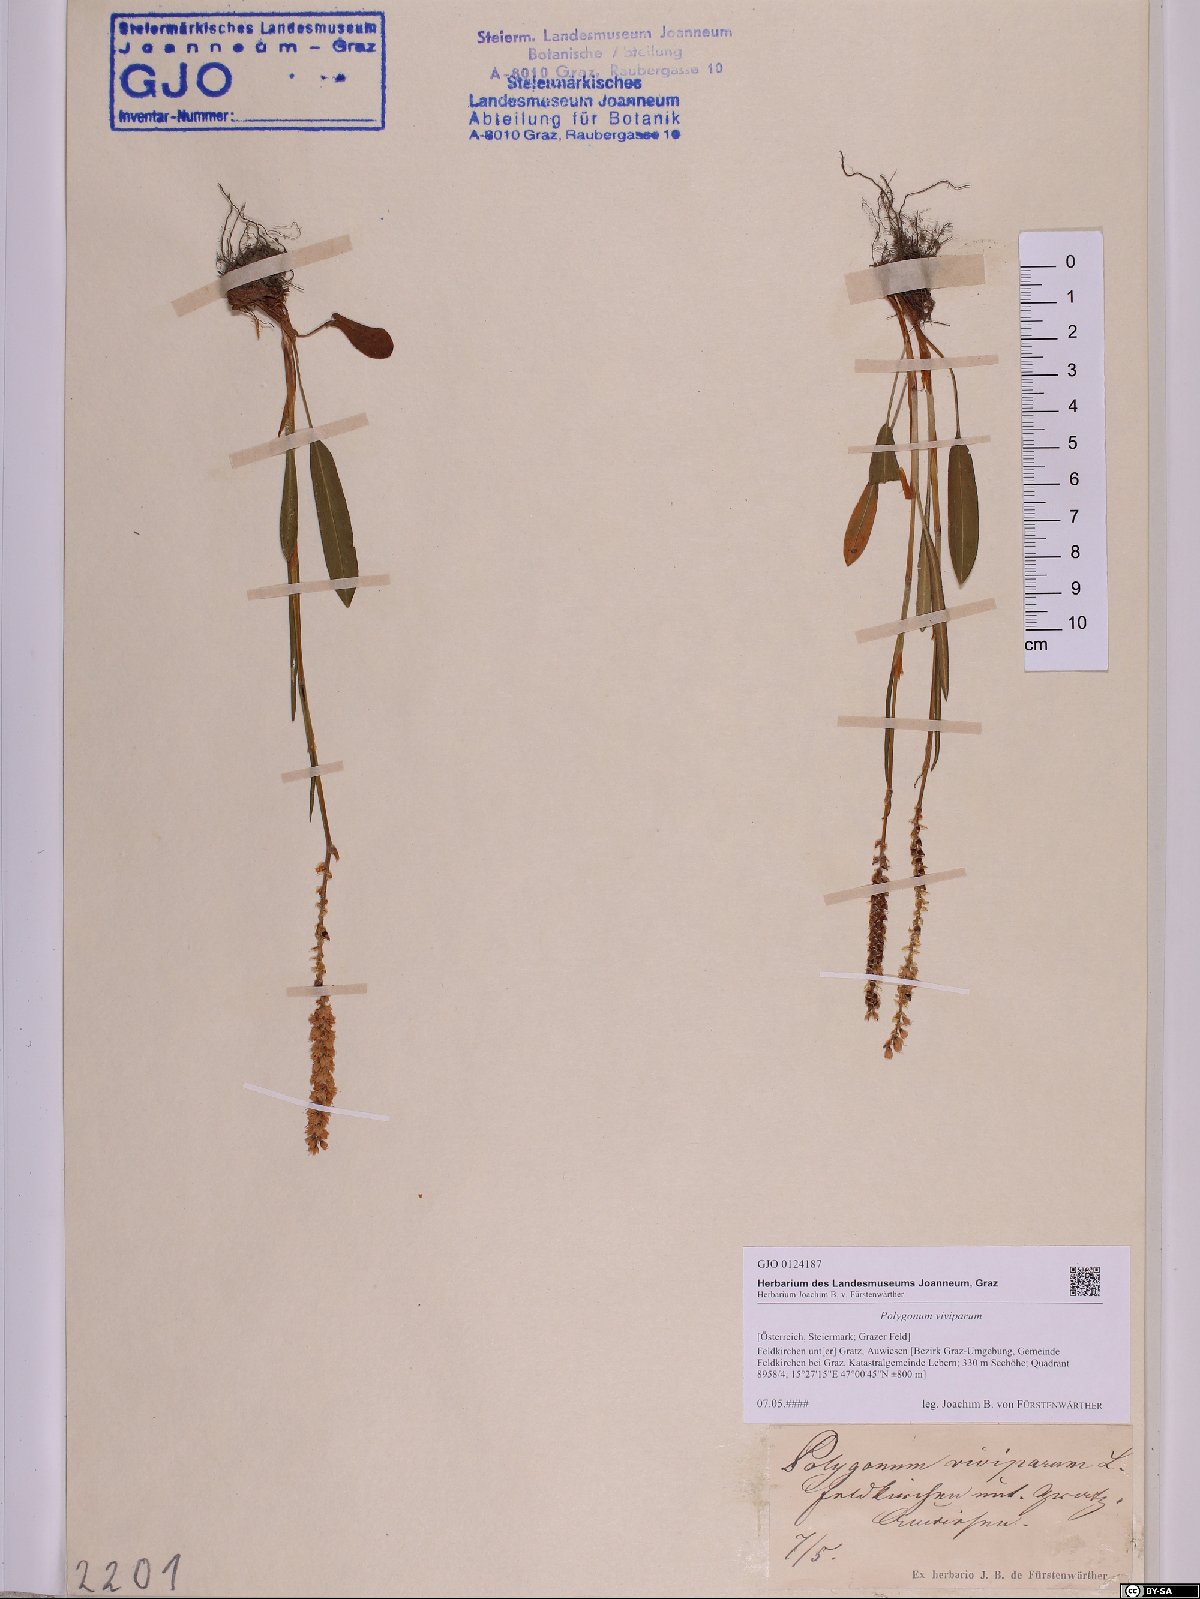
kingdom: Plantae
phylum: Tracheophyta
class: Magnoliopsida
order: Caryophyllales
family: Polygonaceae
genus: Bistorta
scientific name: Bistorta vivipara
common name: Alpine bistort
